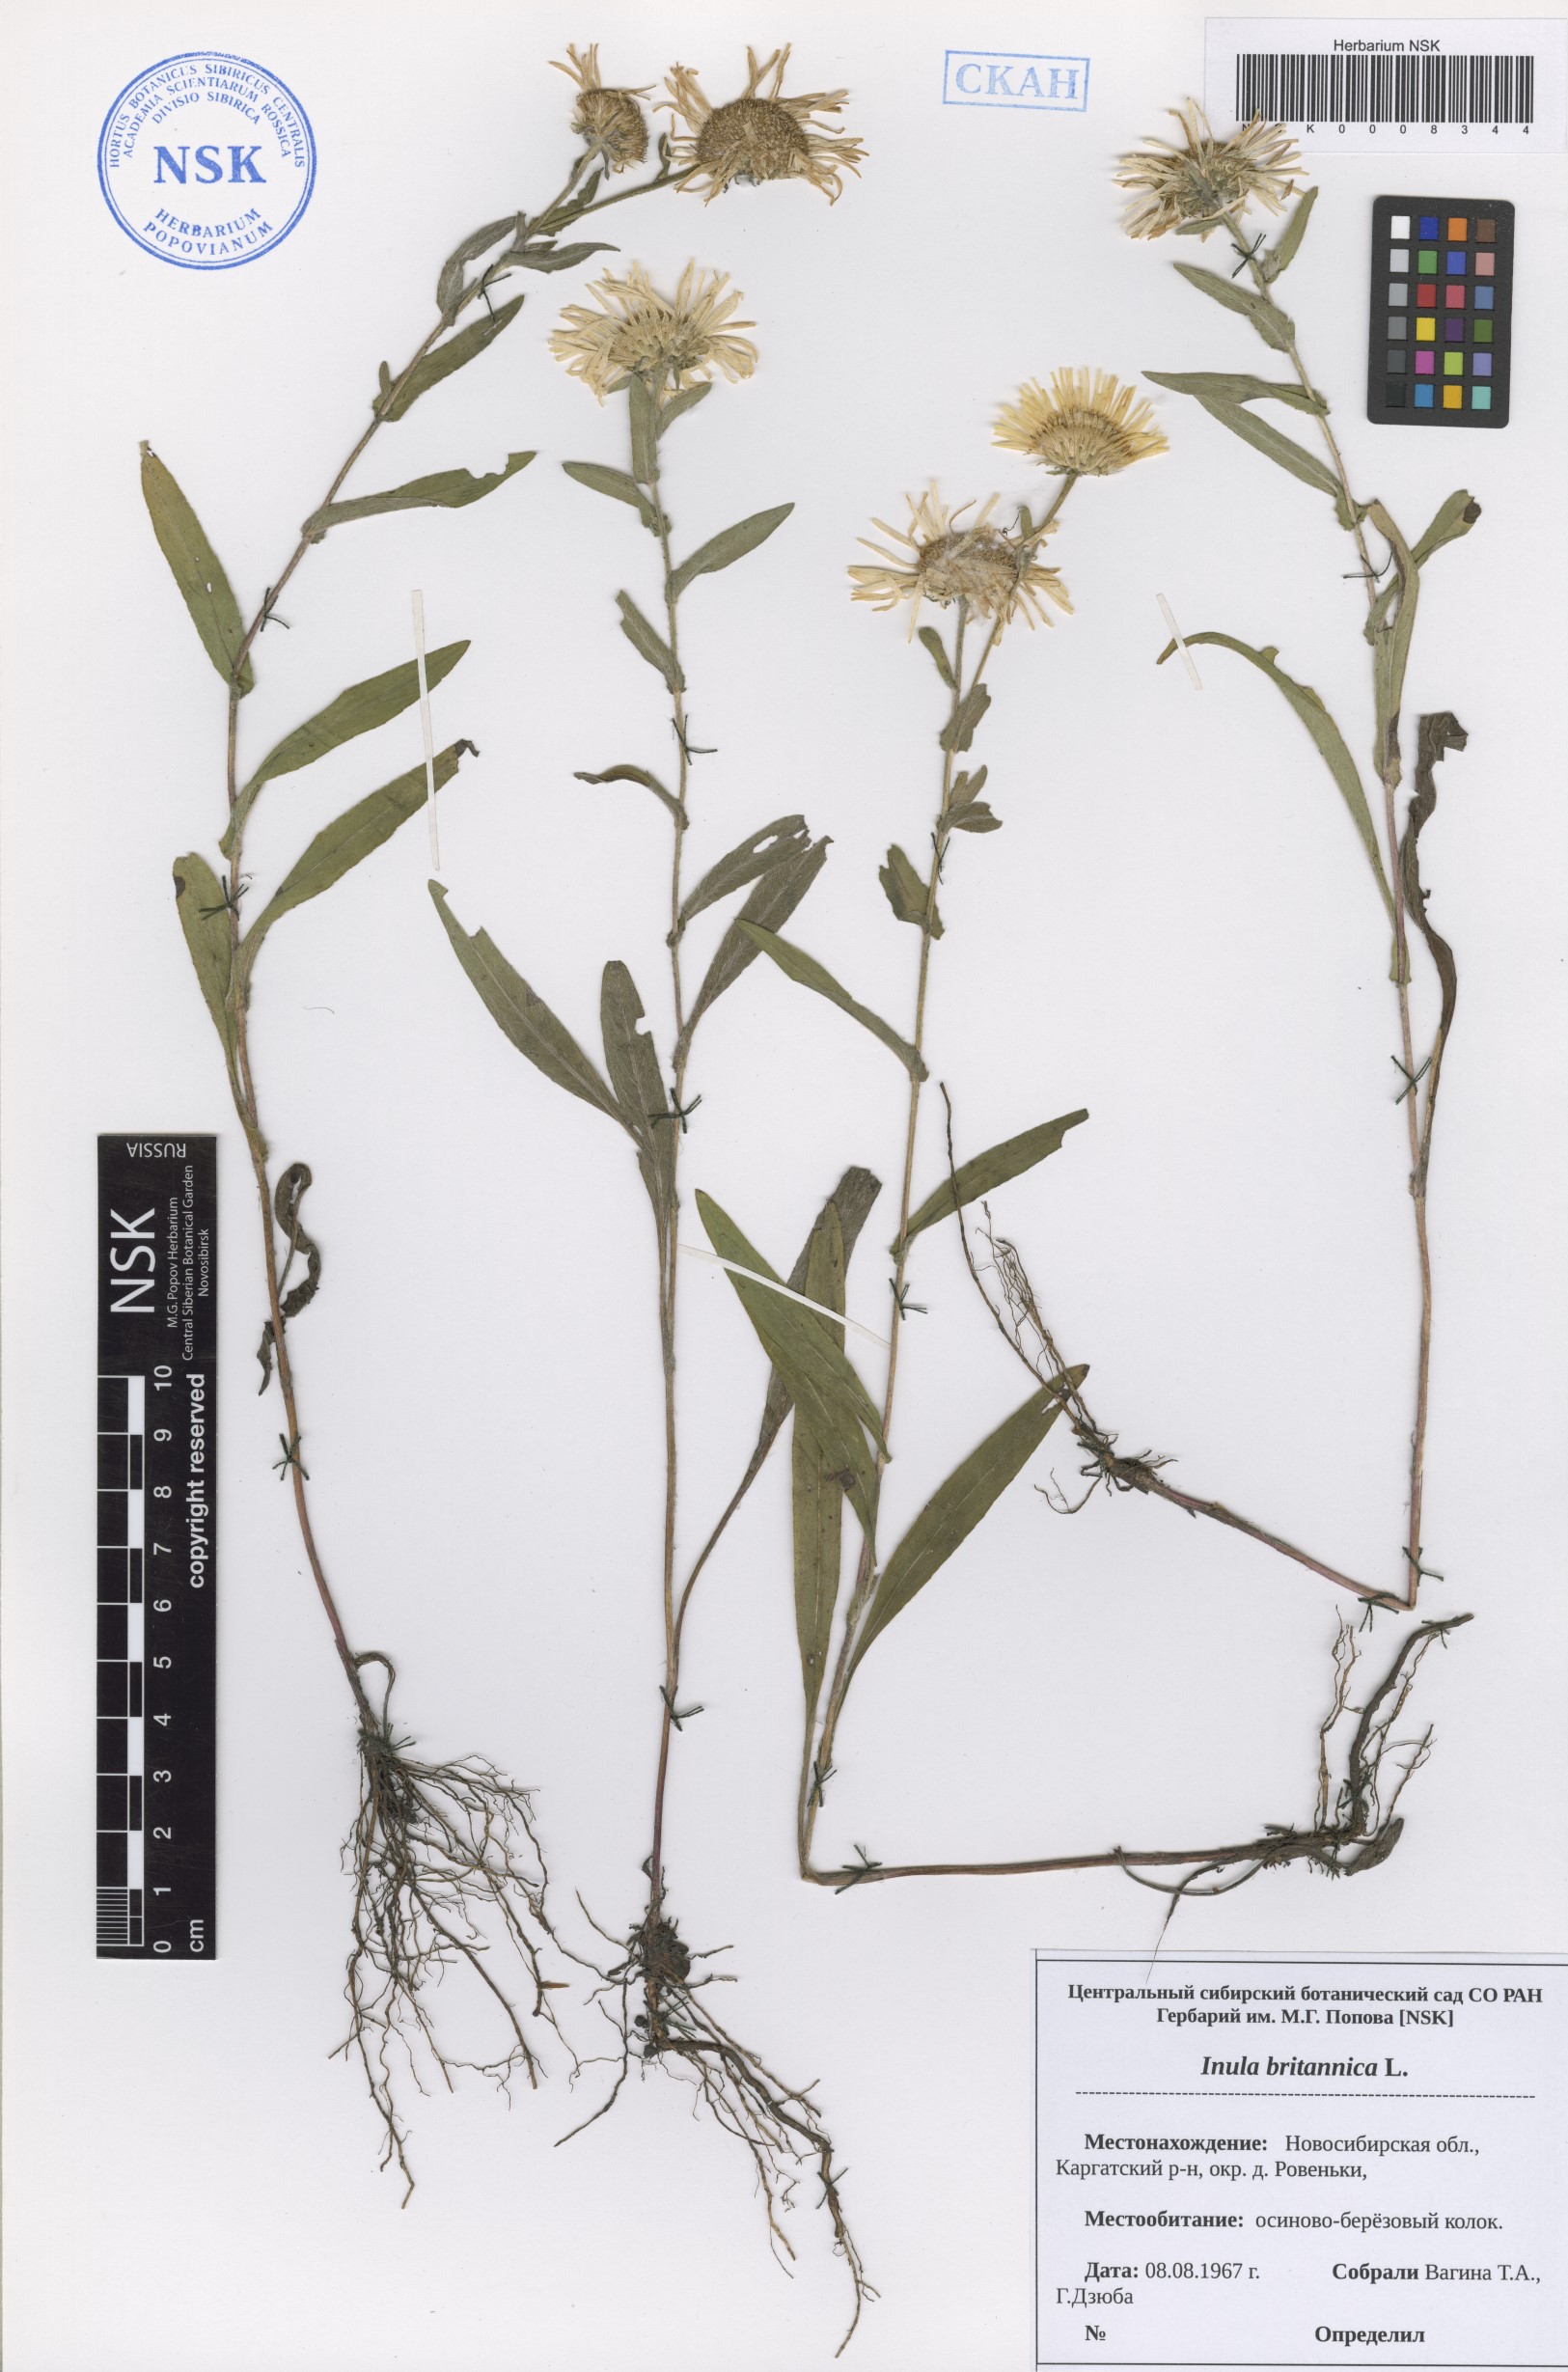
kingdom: Plantae
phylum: Tracheophyta
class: Magnoliopsida
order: Asterales
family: Asteraceae
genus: Pentanema
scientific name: Pentanema britannicum
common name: British elecampane
